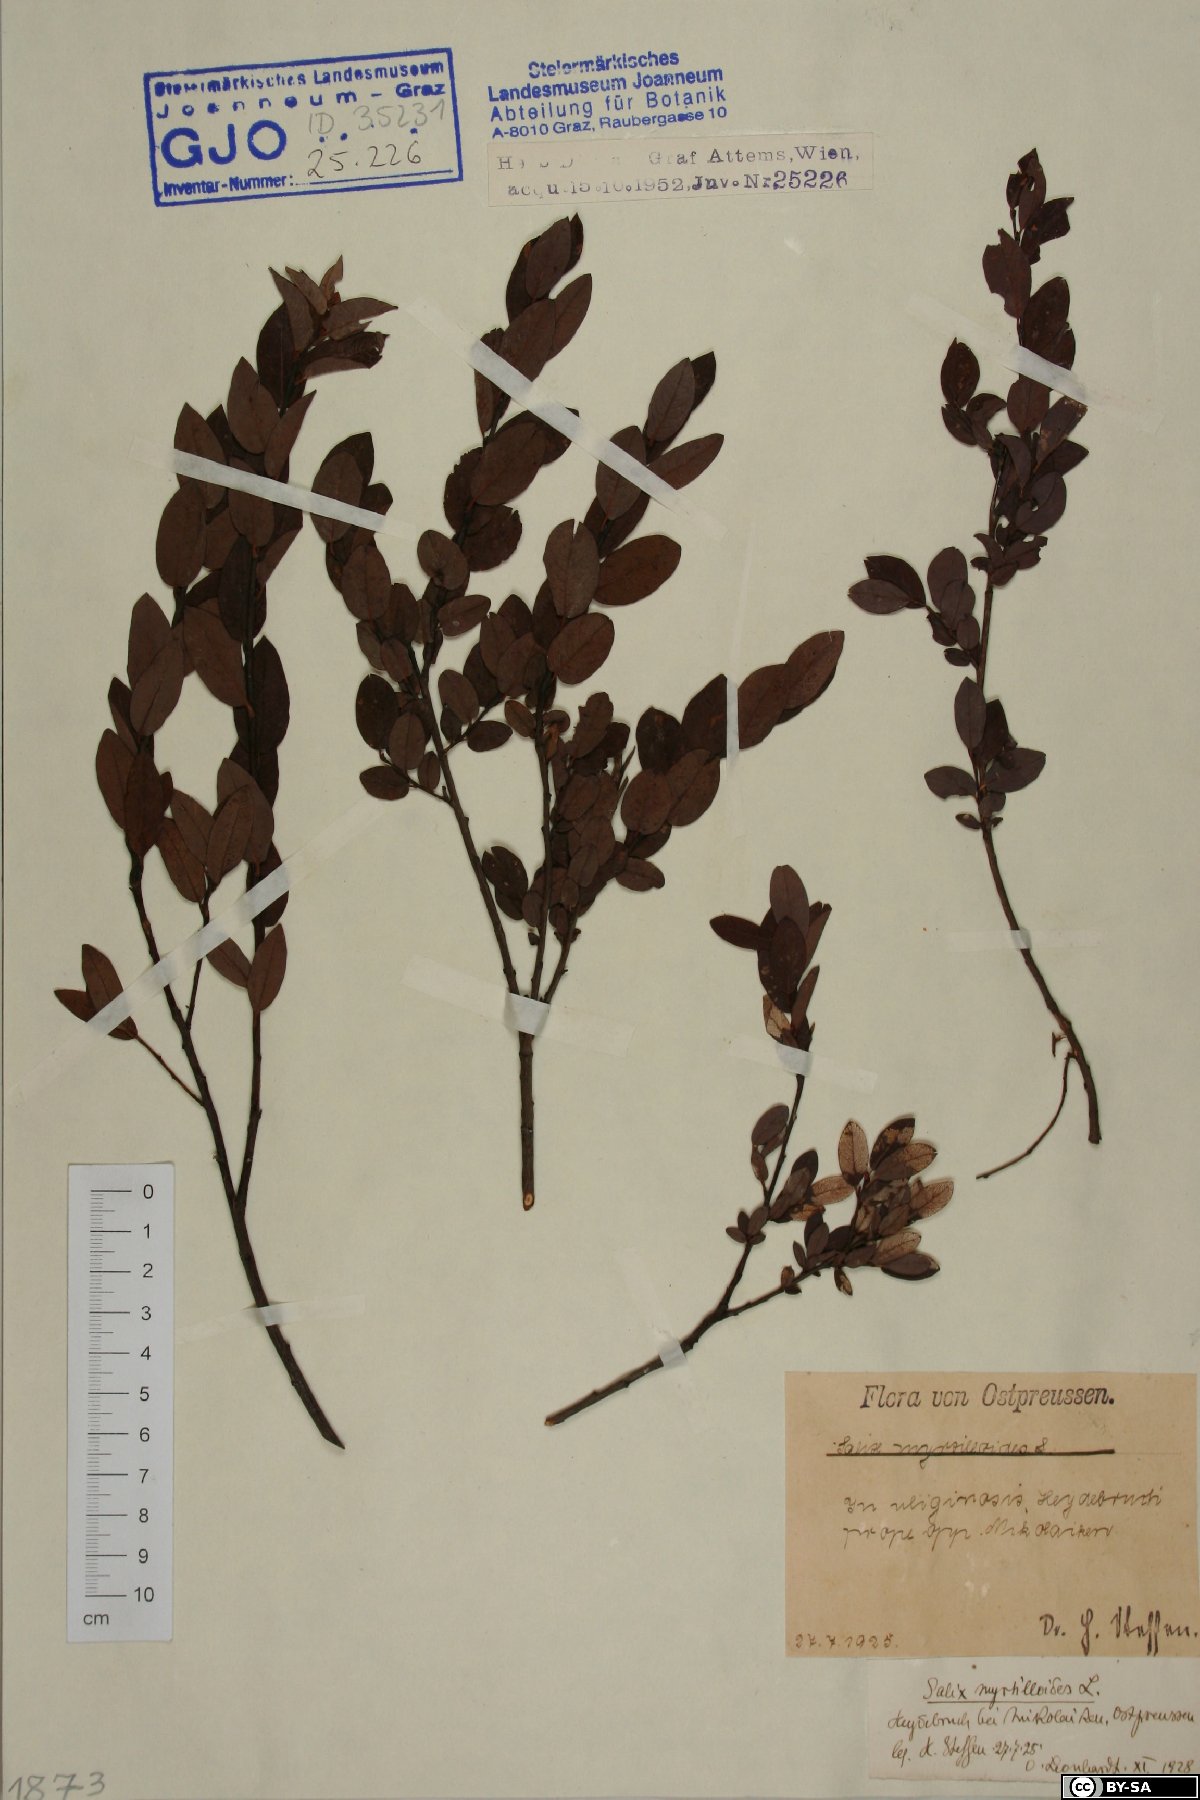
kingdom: Plantae
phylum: Tracheophyta
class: Magnoliopsida
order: Malpighiales
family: Salicaceae
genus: Salix
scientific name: Salix myrtilloides
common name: Myrtle-leaved willow
